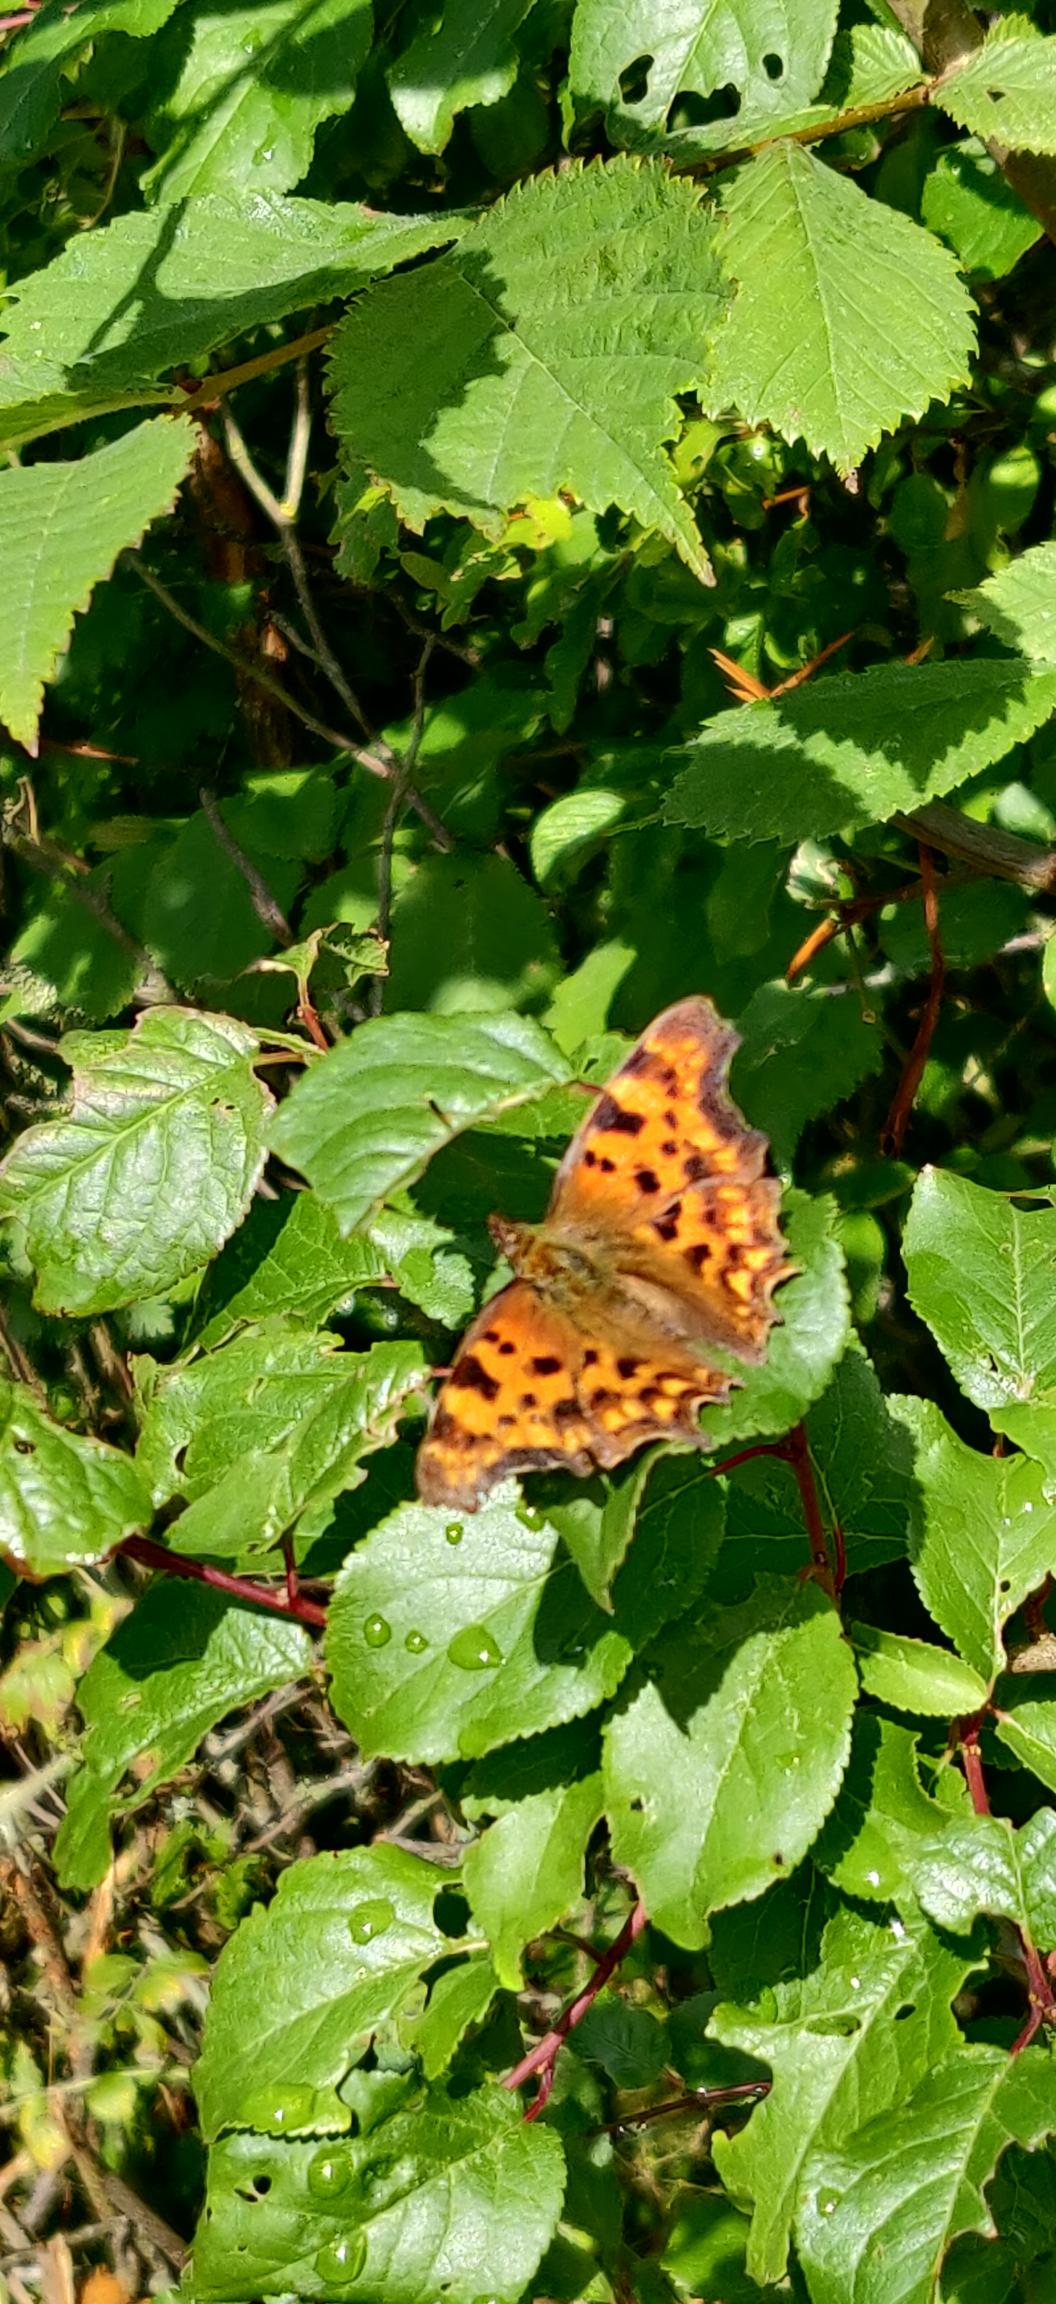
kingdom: Animalia
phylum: Arthropoda
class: Insecta
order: Lepidoptera
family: Nymphalidae
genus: Polygonia
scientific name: Polygonia c-album
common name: Det hvide C
